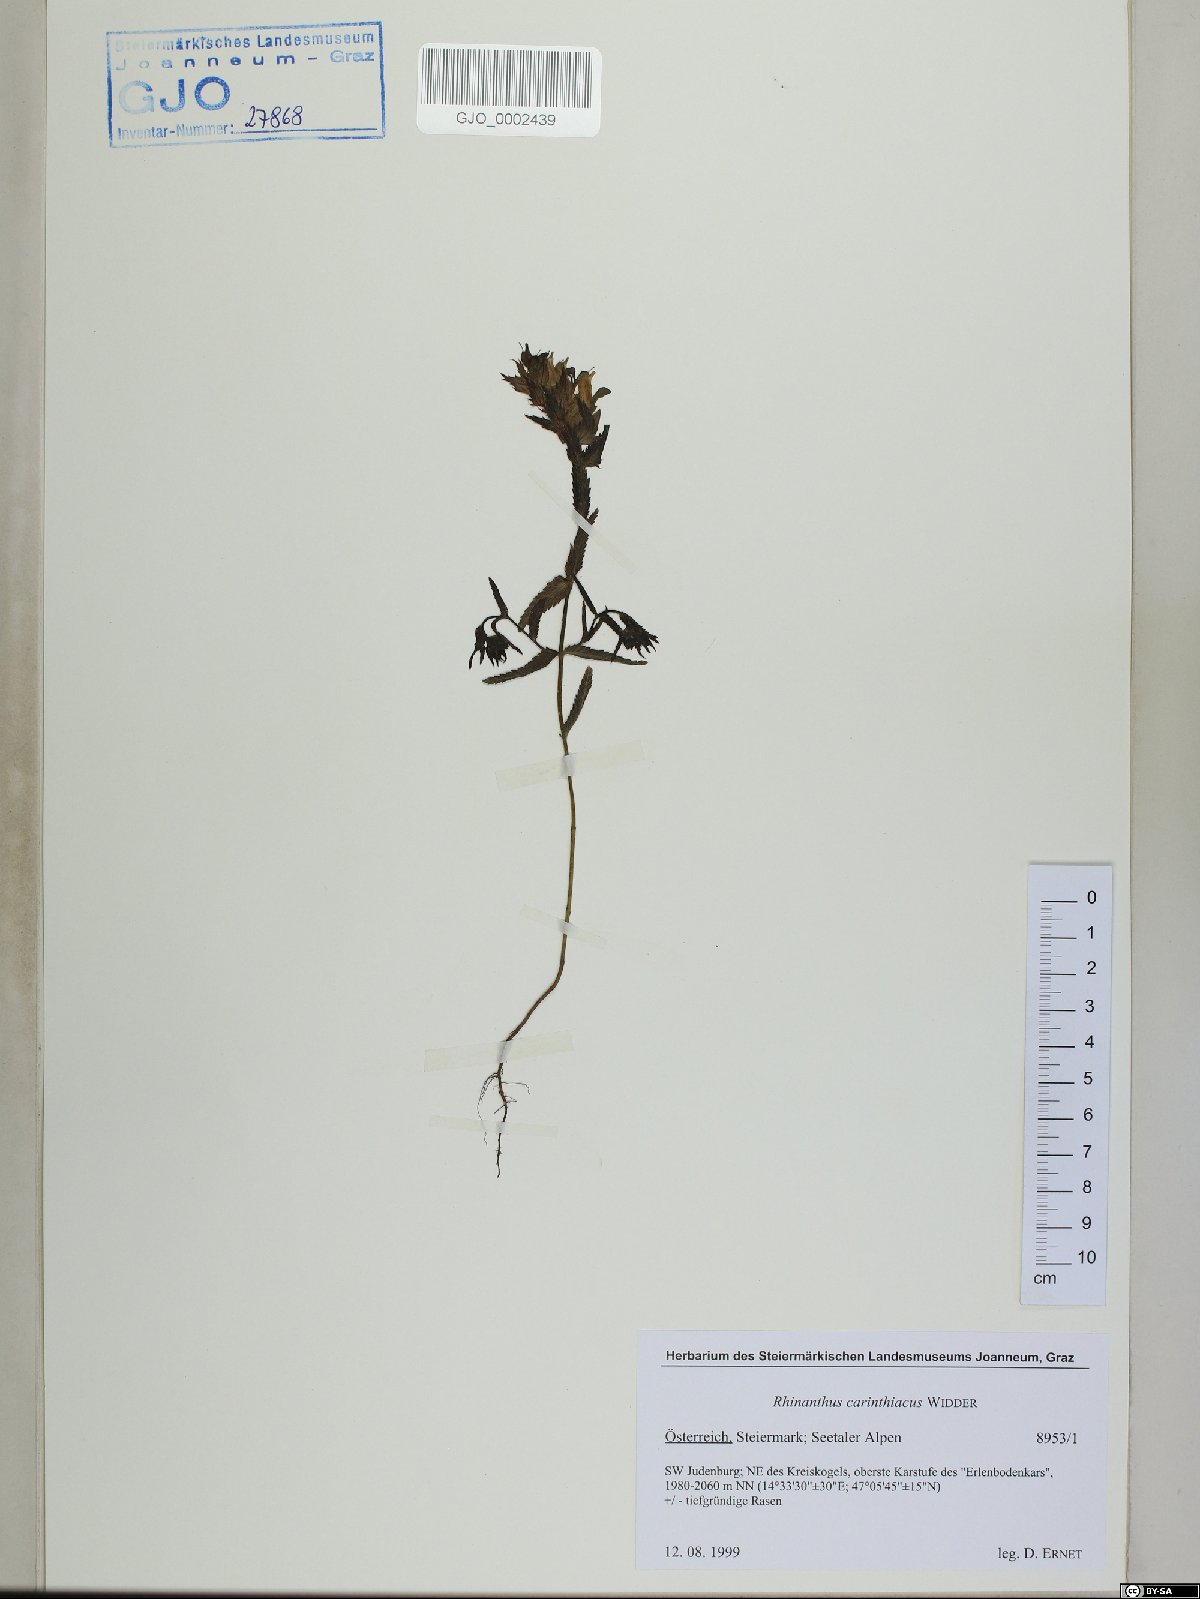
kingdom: Plantae
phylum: Tracheophyta
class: Magnoliopsida
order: Lamiales
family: Orobanchaceae
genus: Rhinanthus
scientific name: Rhinanthus carinthiacus
